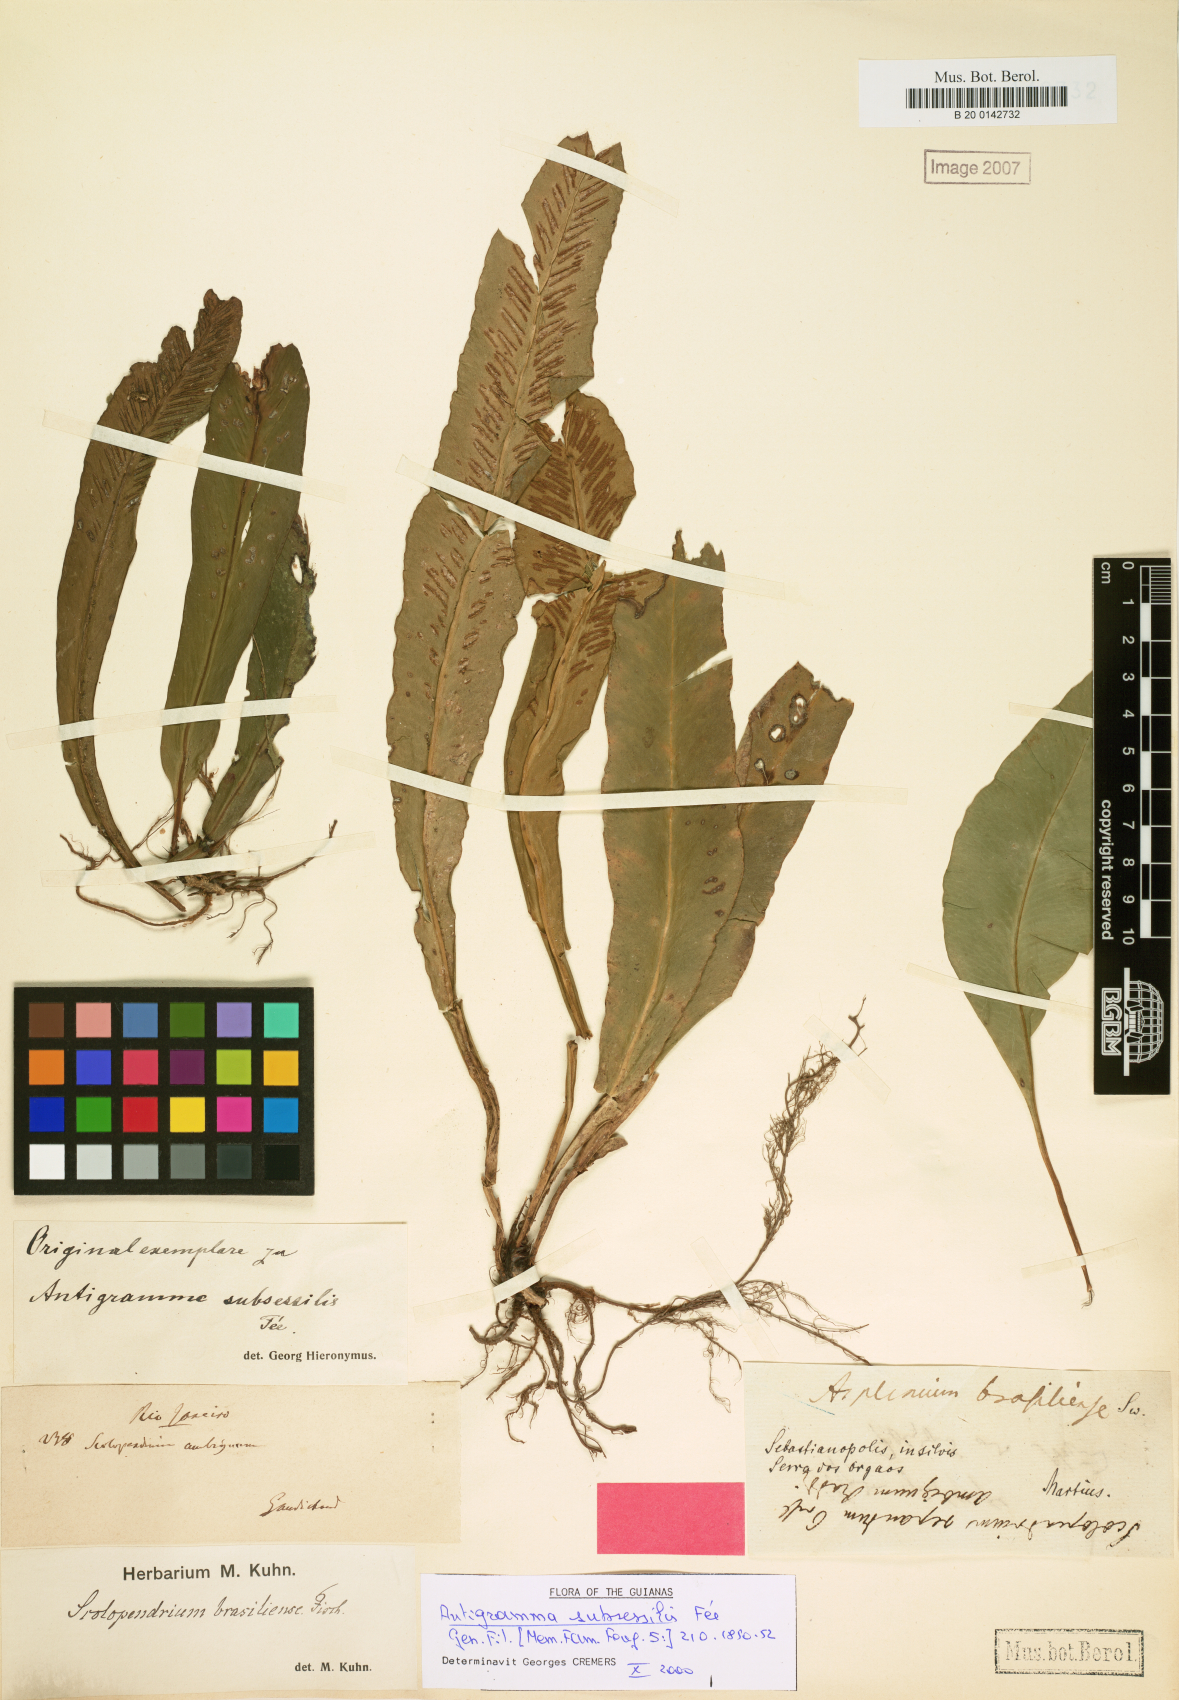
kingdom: Plantae
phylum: Tracheophyta
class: Polypodiopsida
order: Polypodiales
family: Aspleniaceae
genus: Asplenium
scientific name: Asplenium brasiliense
